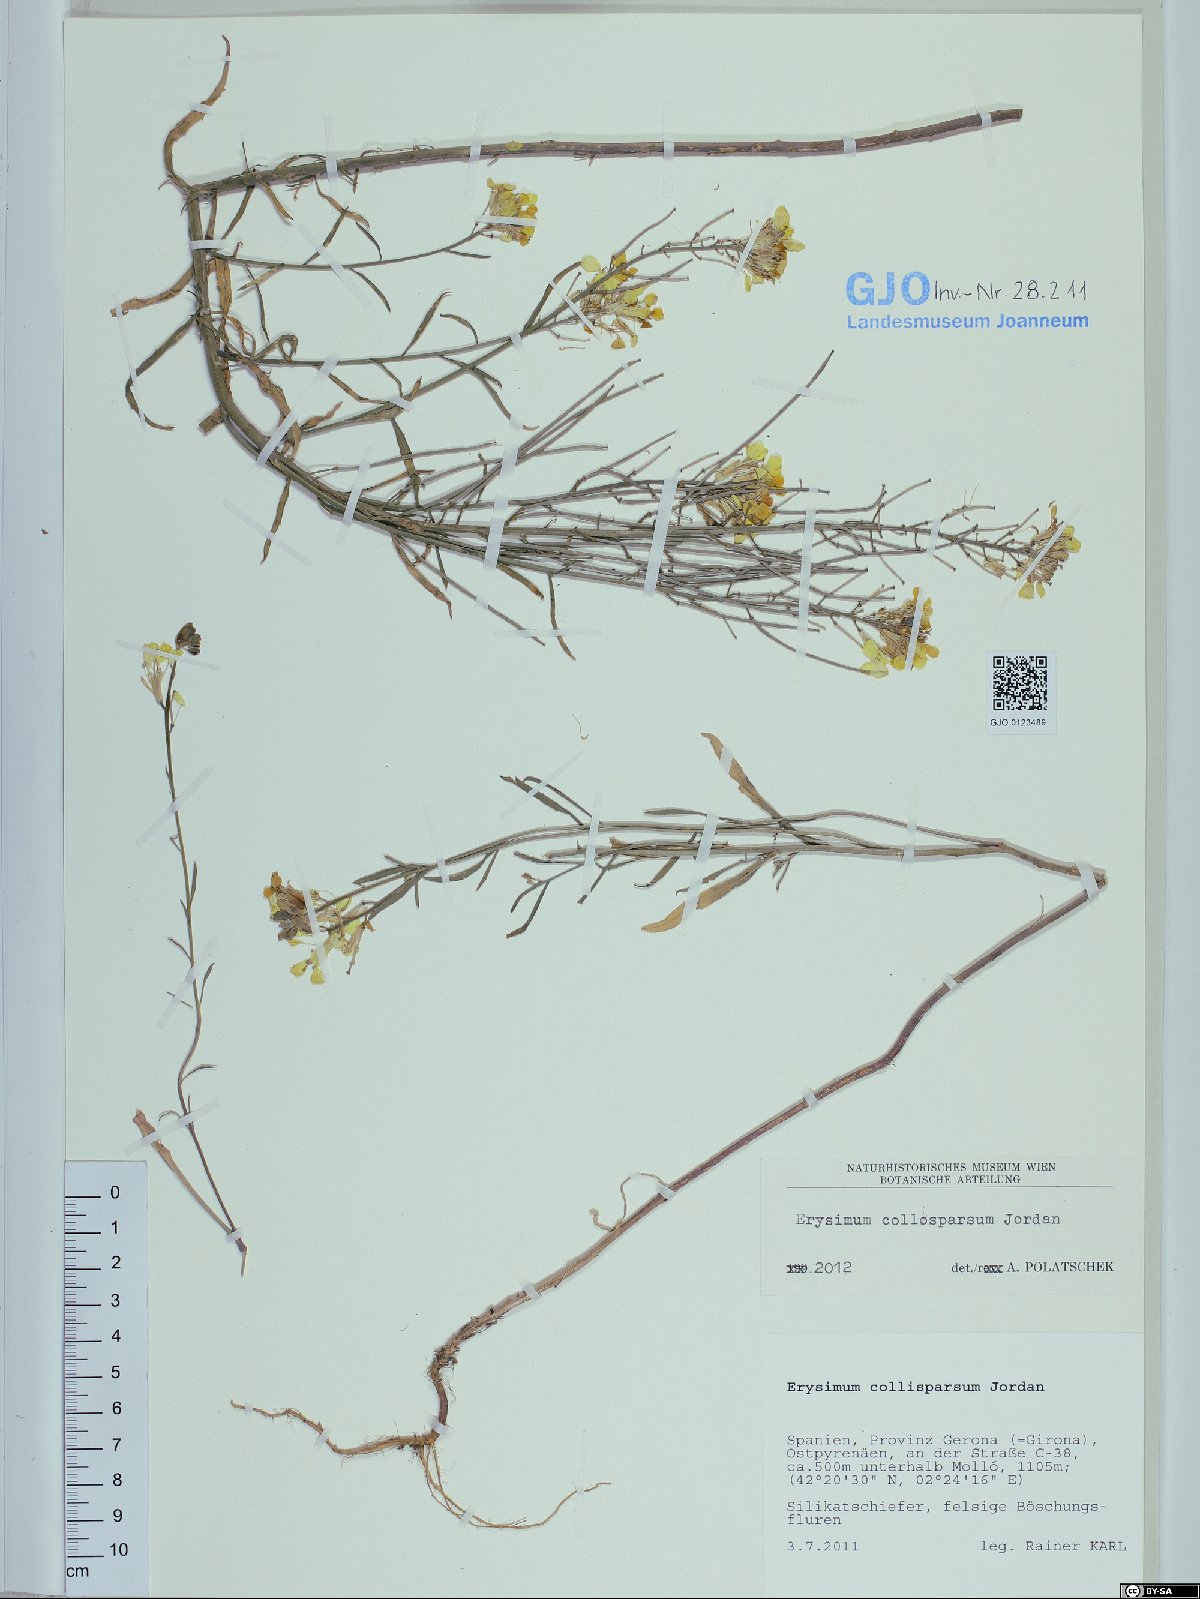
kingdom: Plantae
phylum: Tracheophyta
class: Magnoliopsida
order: Brassicales
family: Brassicaceae
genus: Erysimum
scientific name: Erysimum collisparsum
